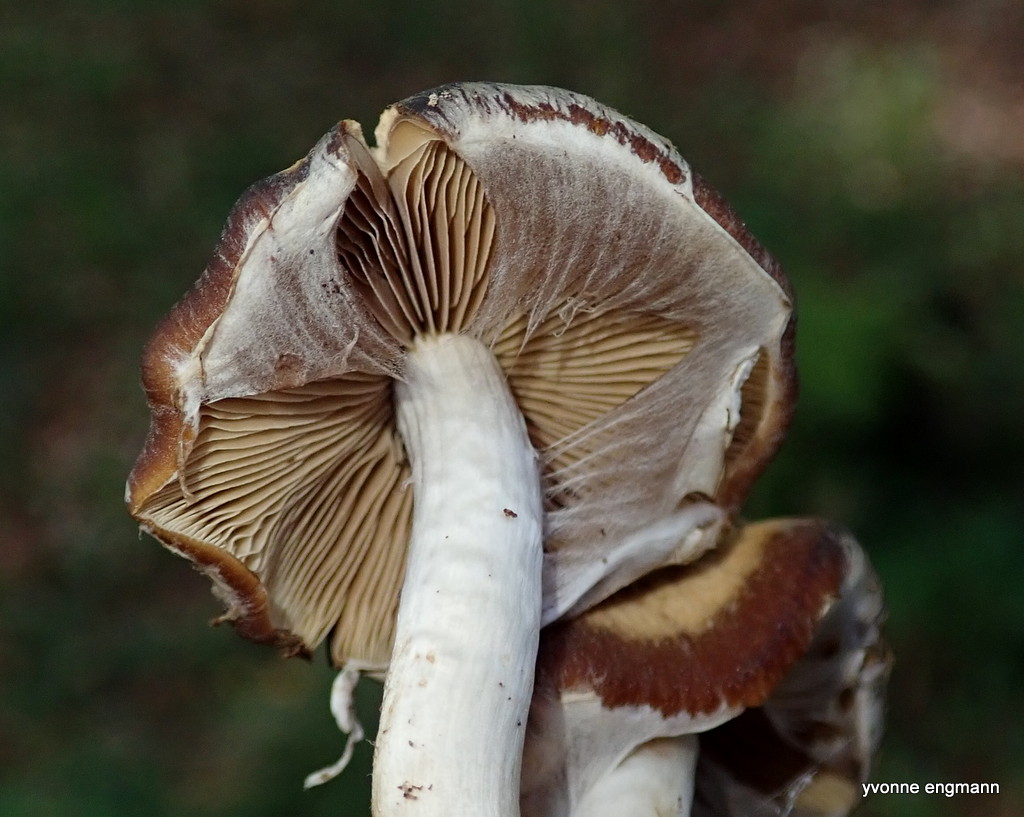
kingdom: Fungi
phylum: Basidiomycota
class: Agaricomycetes
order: Agaricales
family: Psathyrellaceae
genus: Psathyrella
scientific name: Psathyrella piluliformis
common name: lysstokket mørkhat
